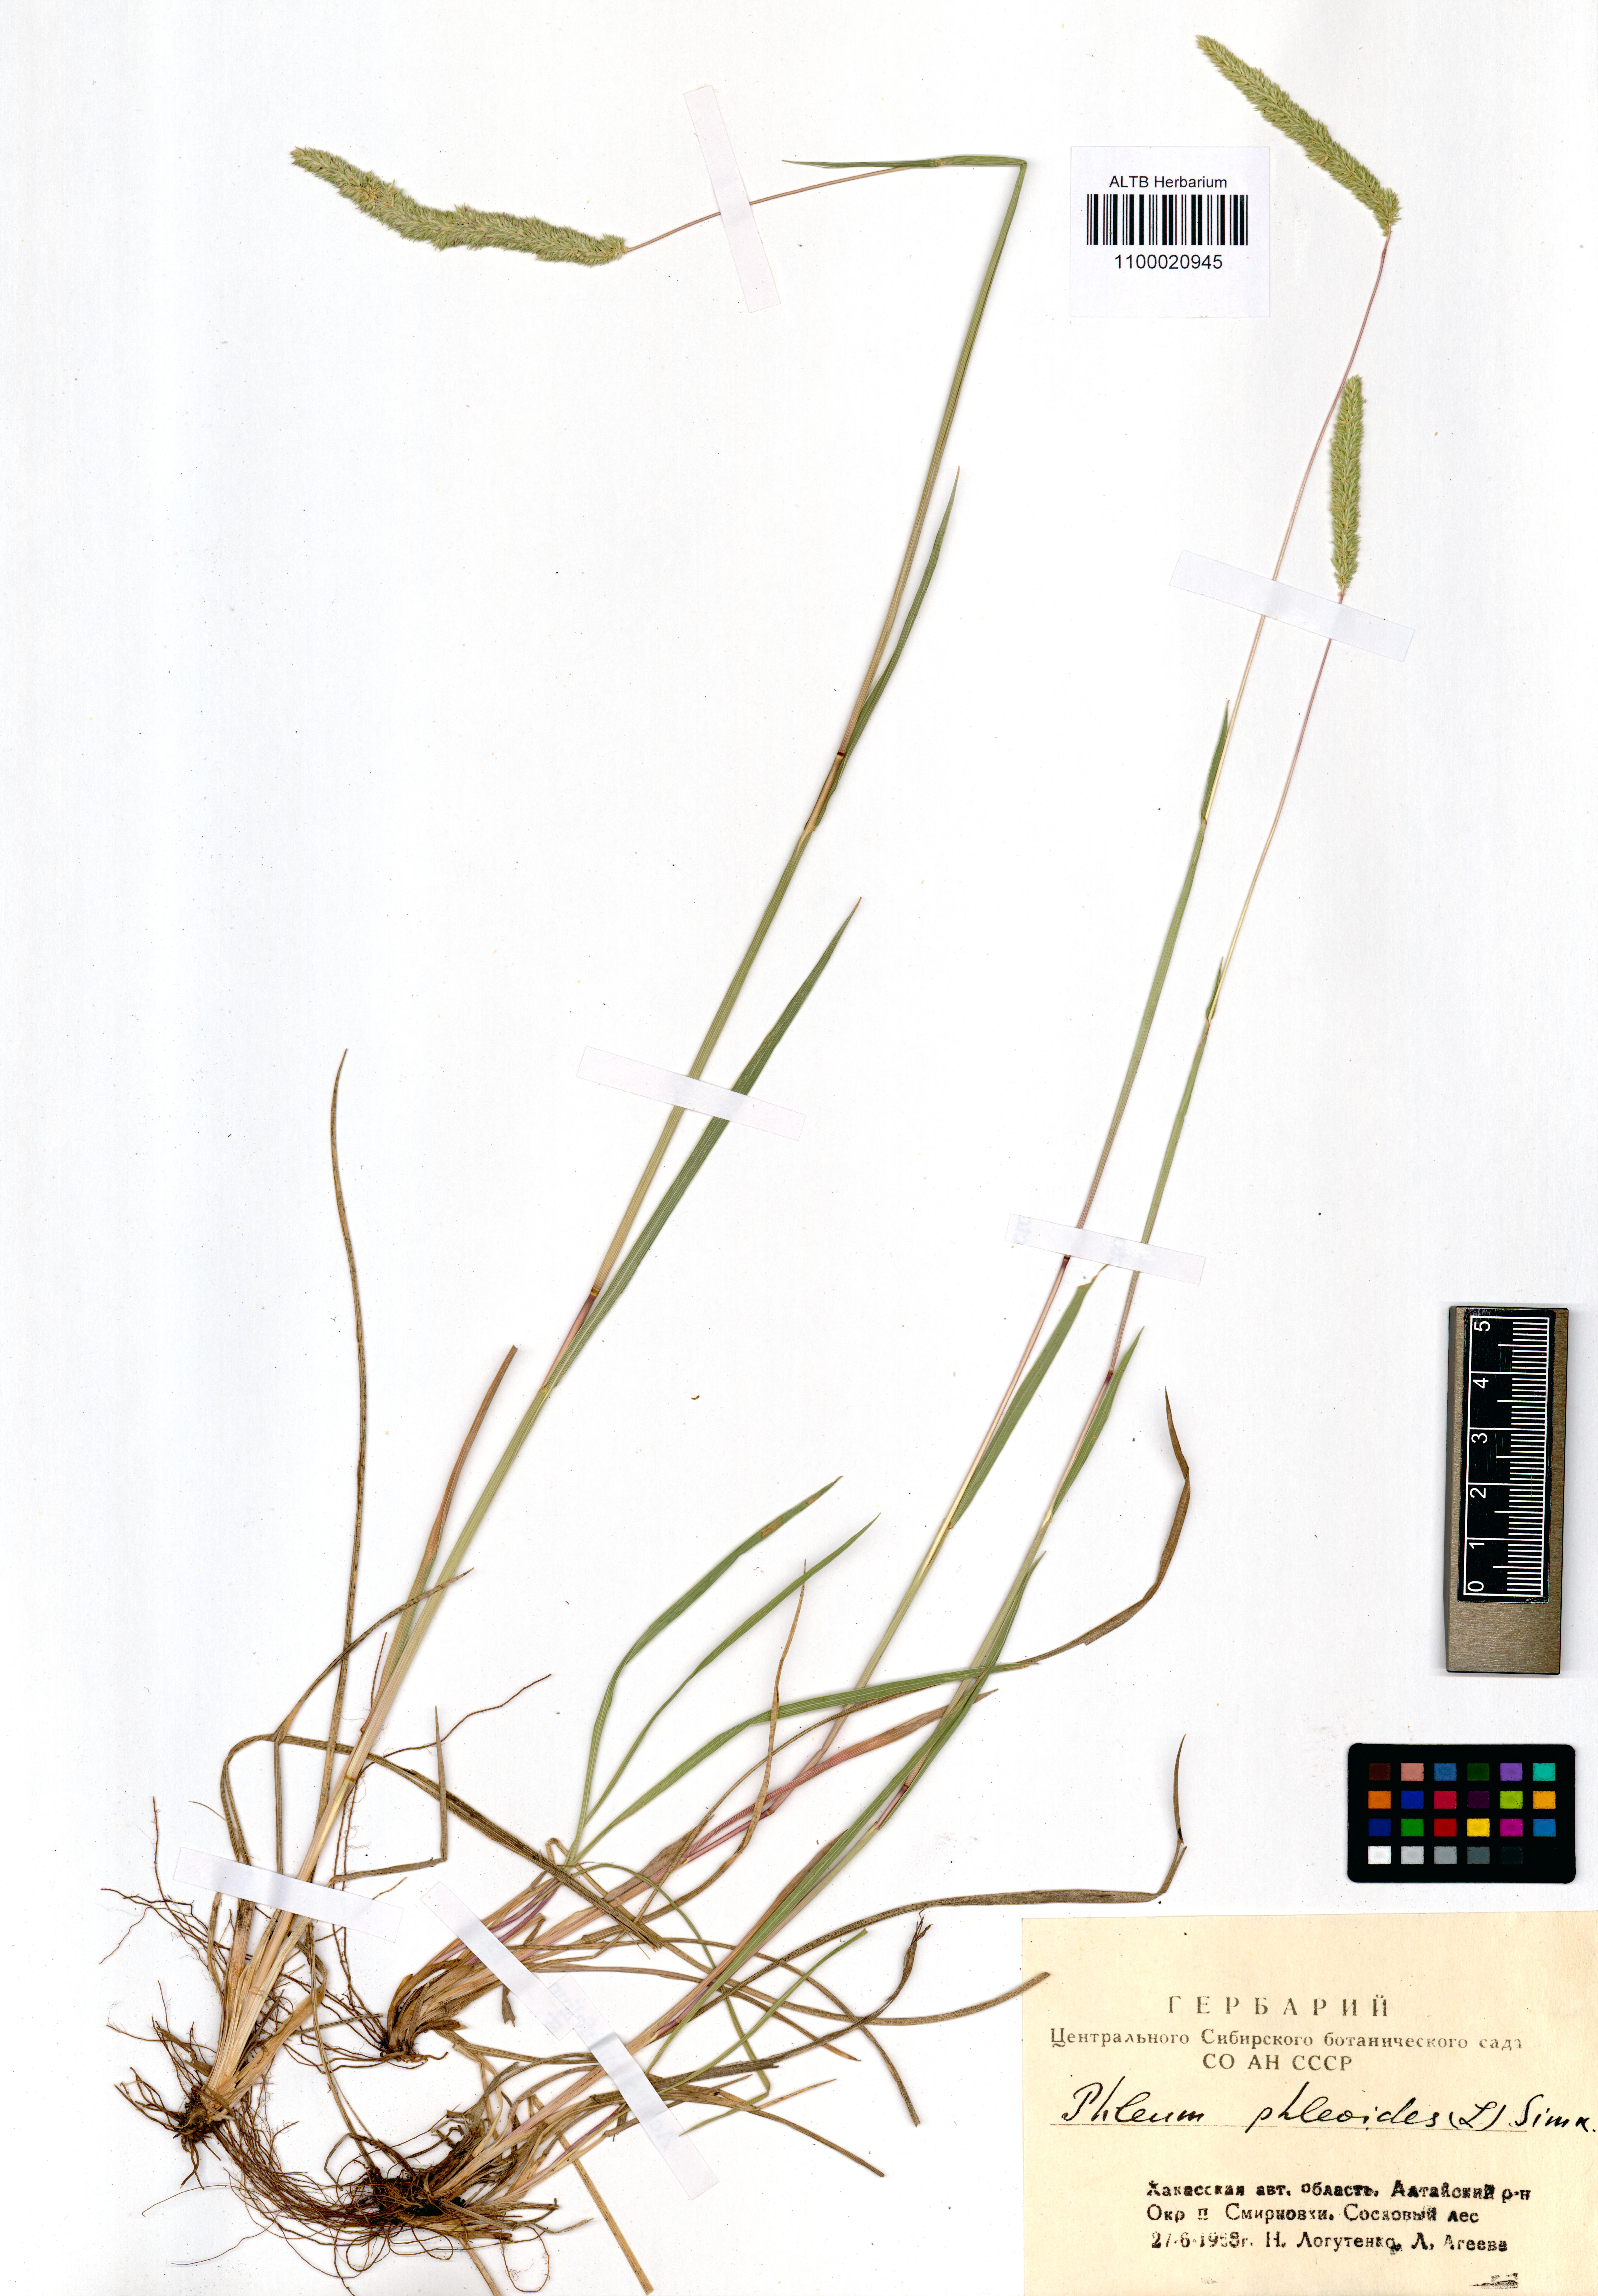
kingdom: Plantae
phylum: Tracheophyta
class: Liliopsida
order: Poales
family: Poaceae
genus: Phleum
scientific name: Phleum phleoides
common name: Purple-stem cat's-tail
